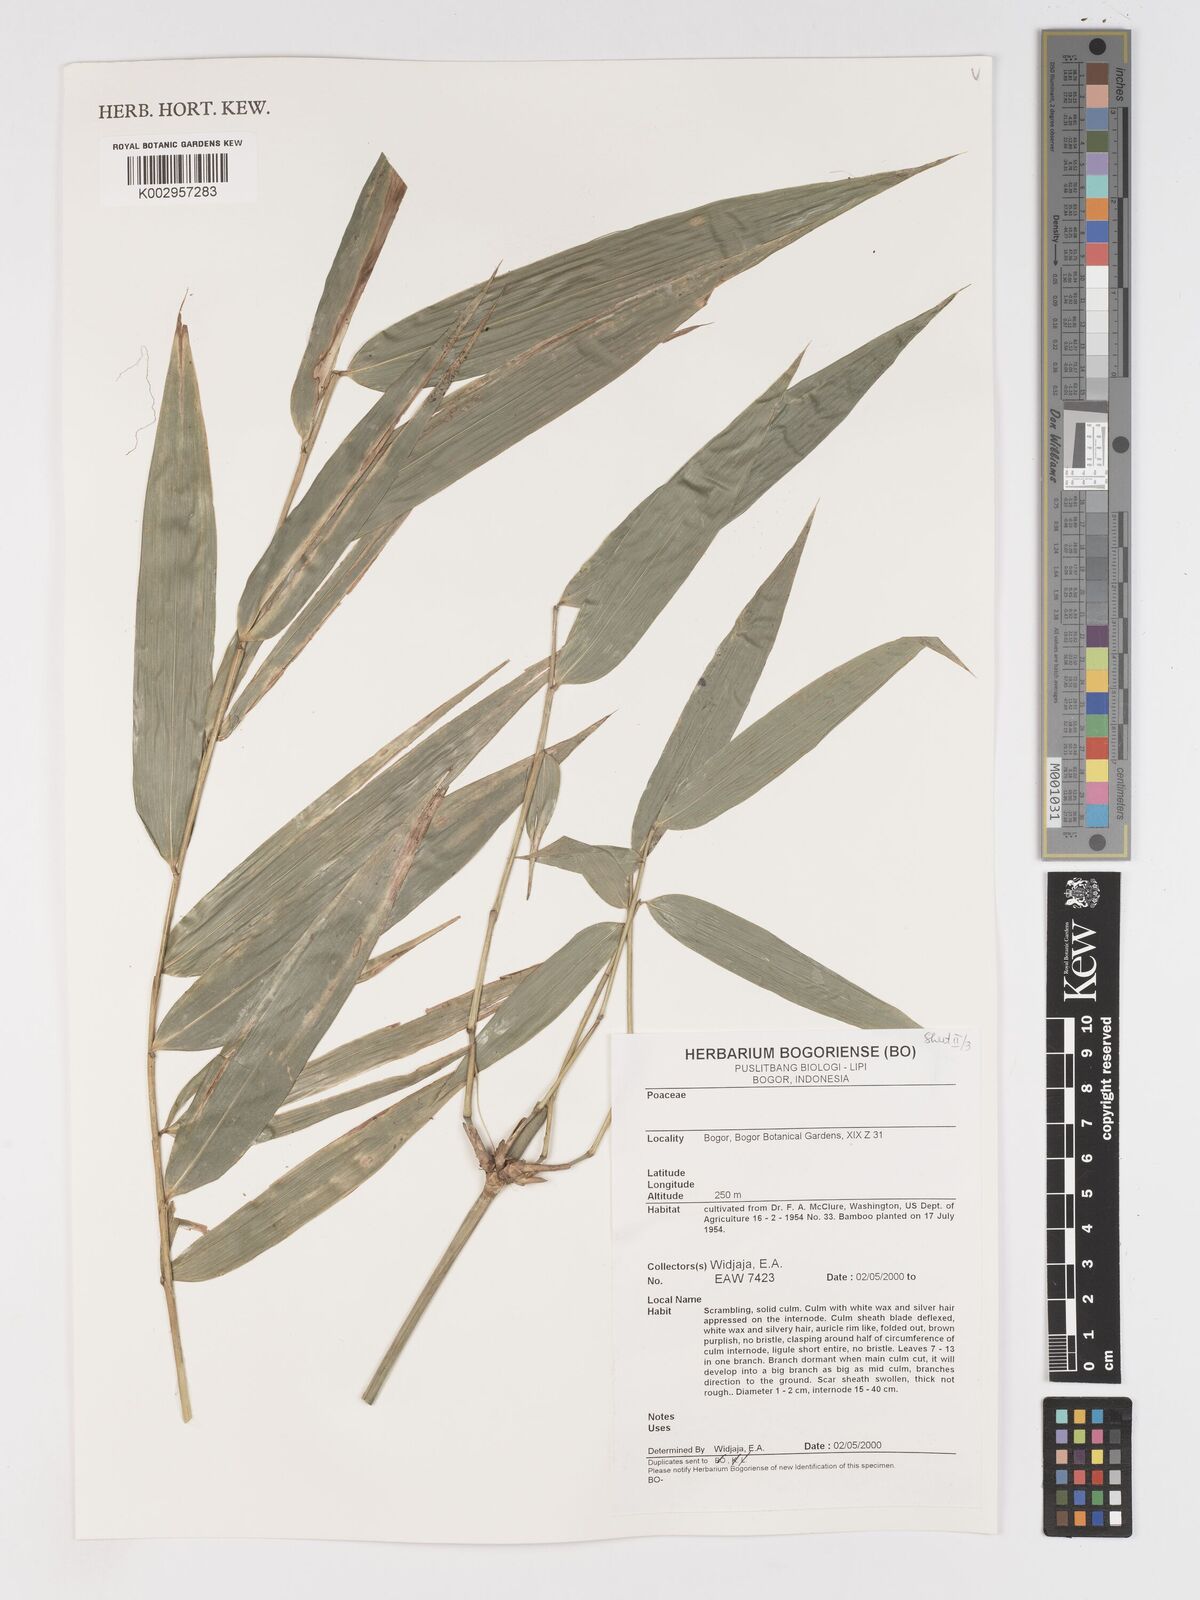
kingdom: Plantae
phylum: Tracheophyta
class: Liliopsida
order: Poales
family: Poaceae
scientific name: Poaceae
